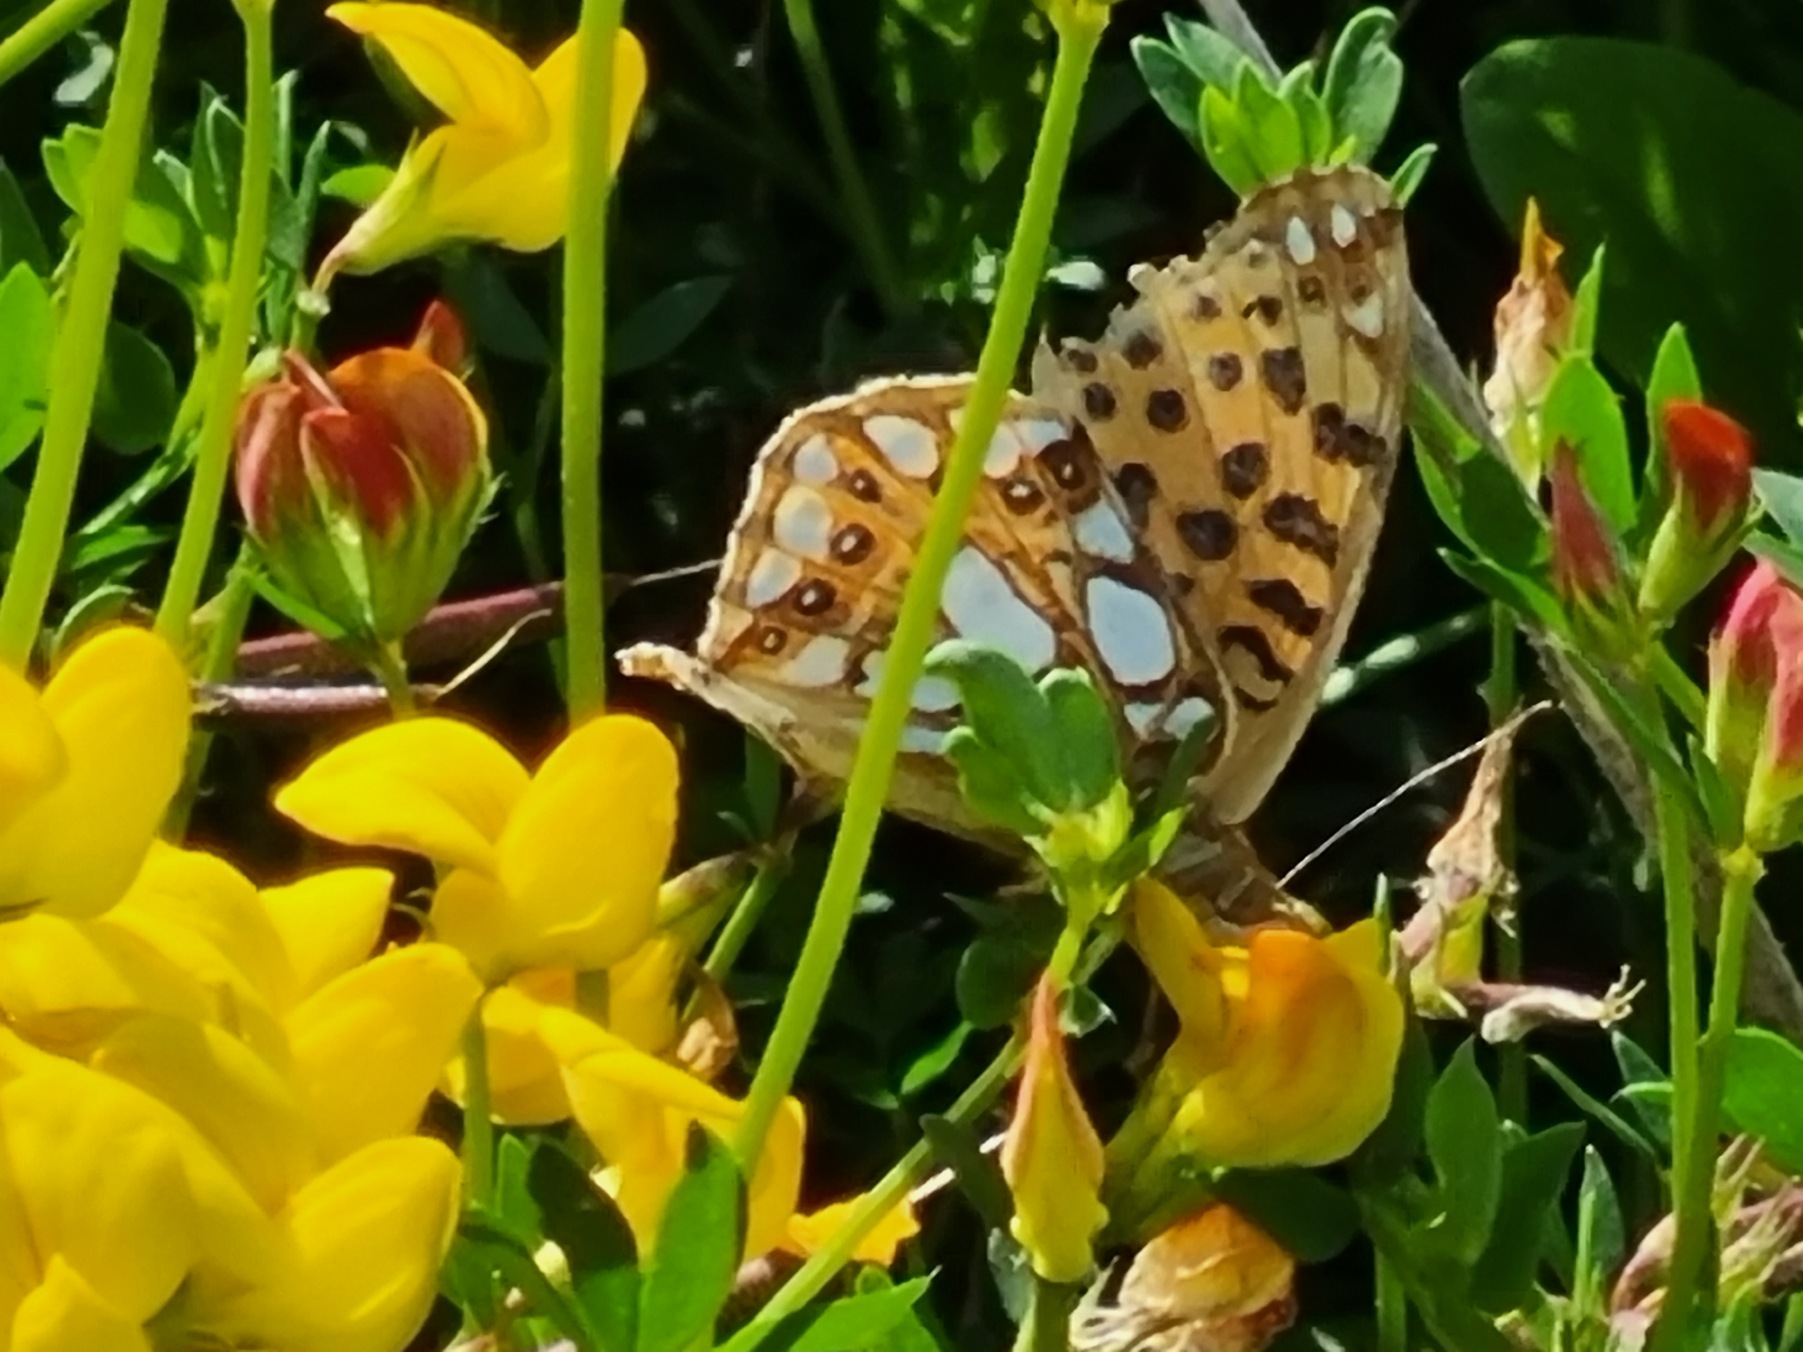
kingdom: Animalia
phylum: Arthropoda
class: Insecta
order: Lepidoptera
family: Nymphalidae
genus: Issoria
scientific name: Issoria lathonia
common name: Storplettet perlemorsommerfugl
